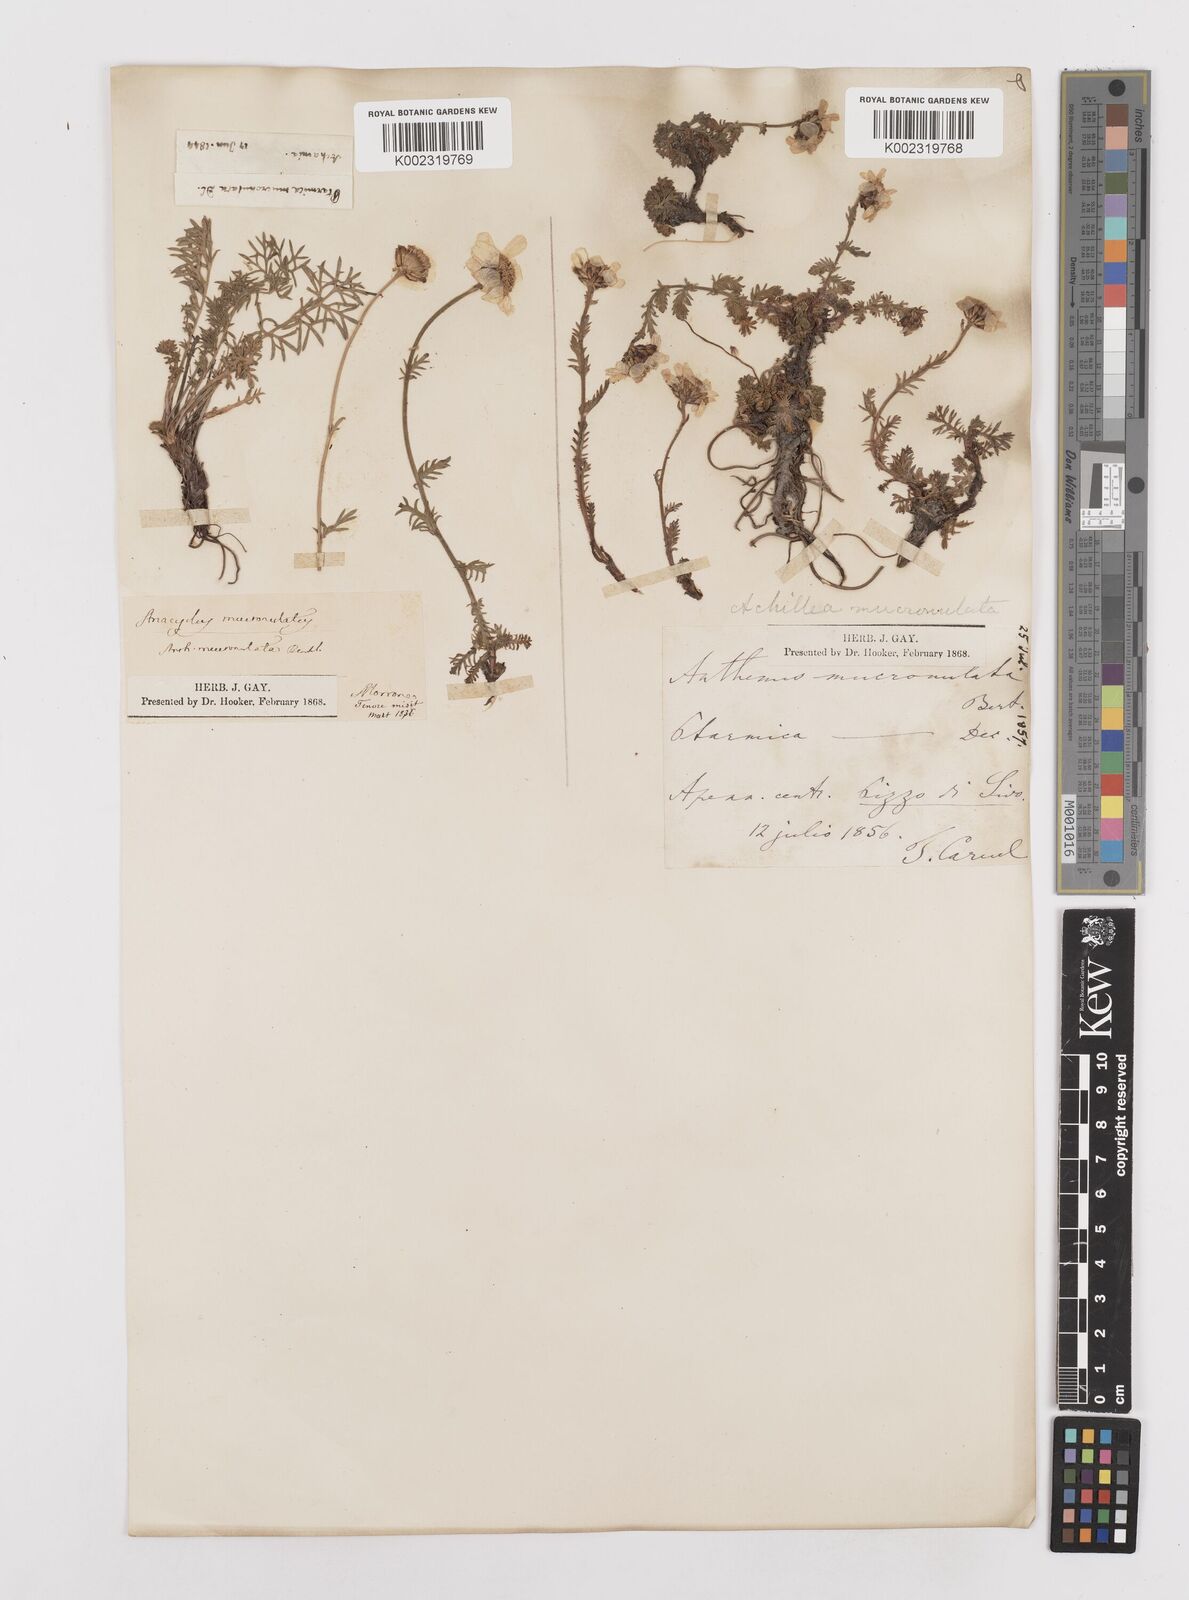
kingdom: Plantae
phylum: Tracheophyta
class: Magnoliopsida
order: Asterales
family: Asteraceae
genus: Achillea
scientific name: Achillea barrelieri
